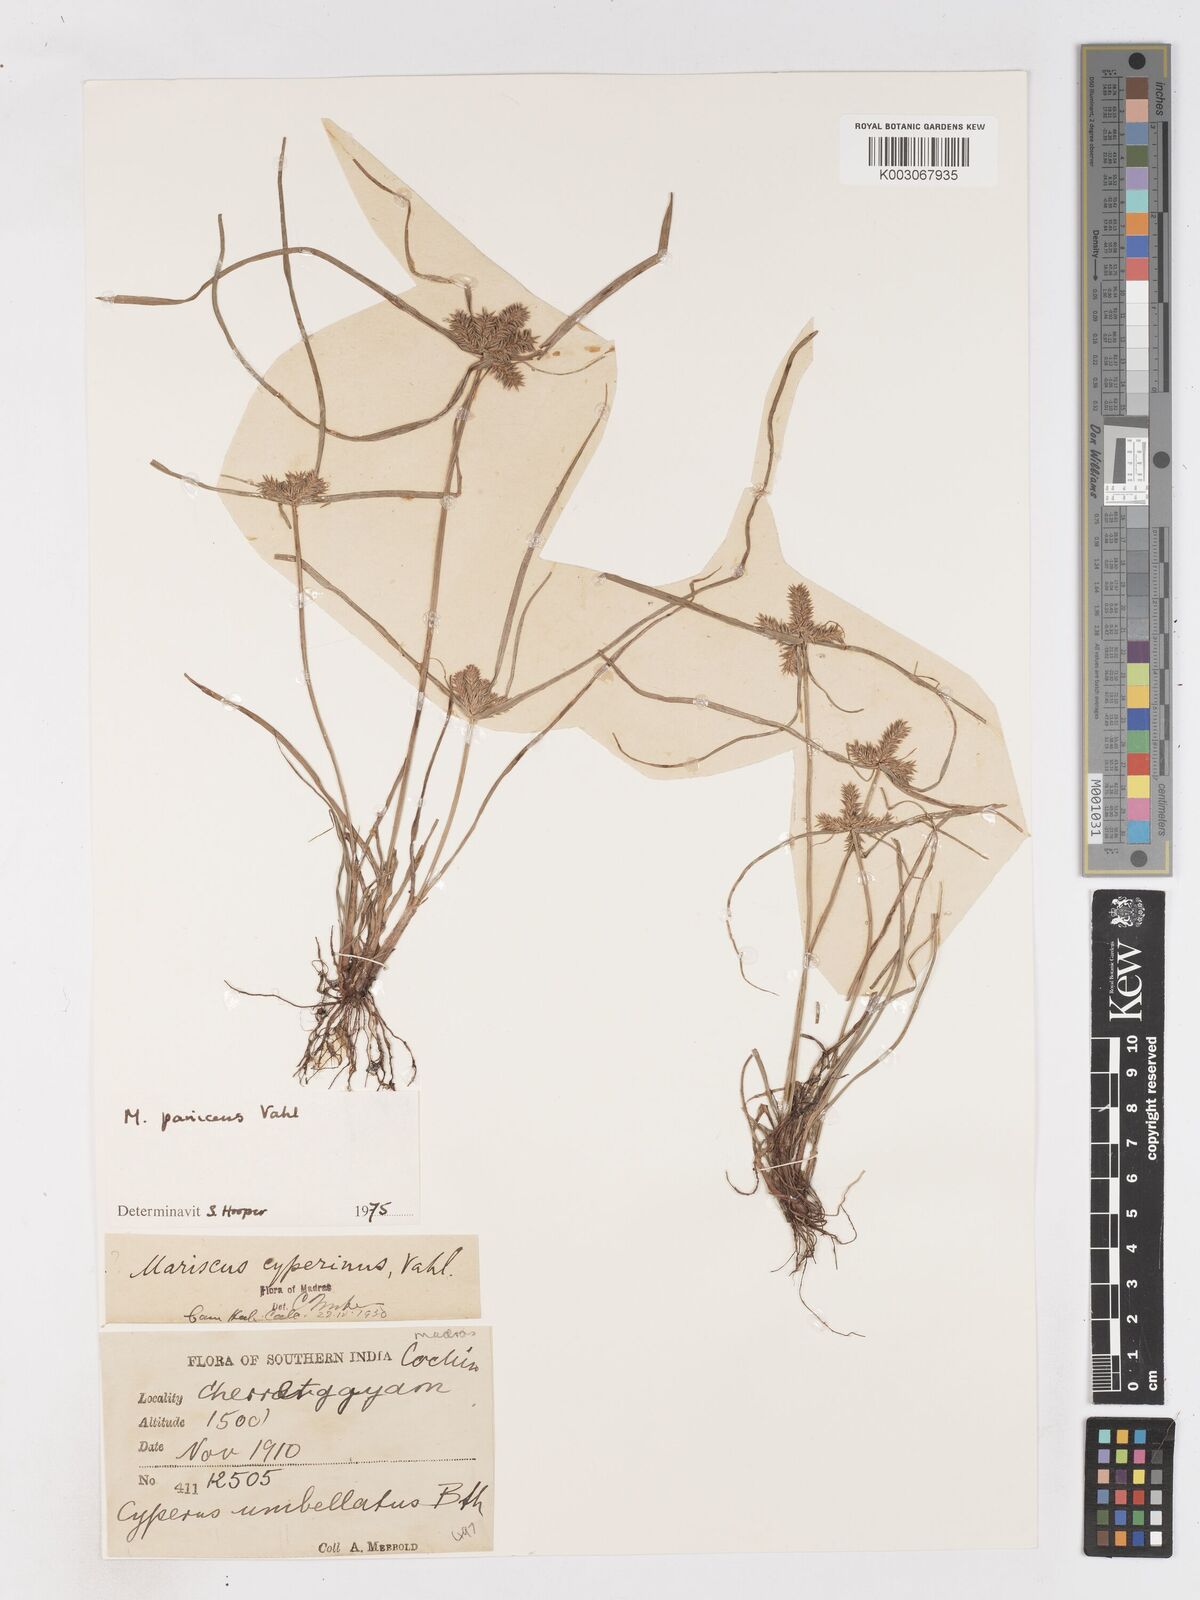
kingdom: Plantae
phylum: Tracheophyta
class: Liliopsida
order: Poales
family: Cyperaceae
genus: Cyperus
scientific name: Cyperus paniceus
